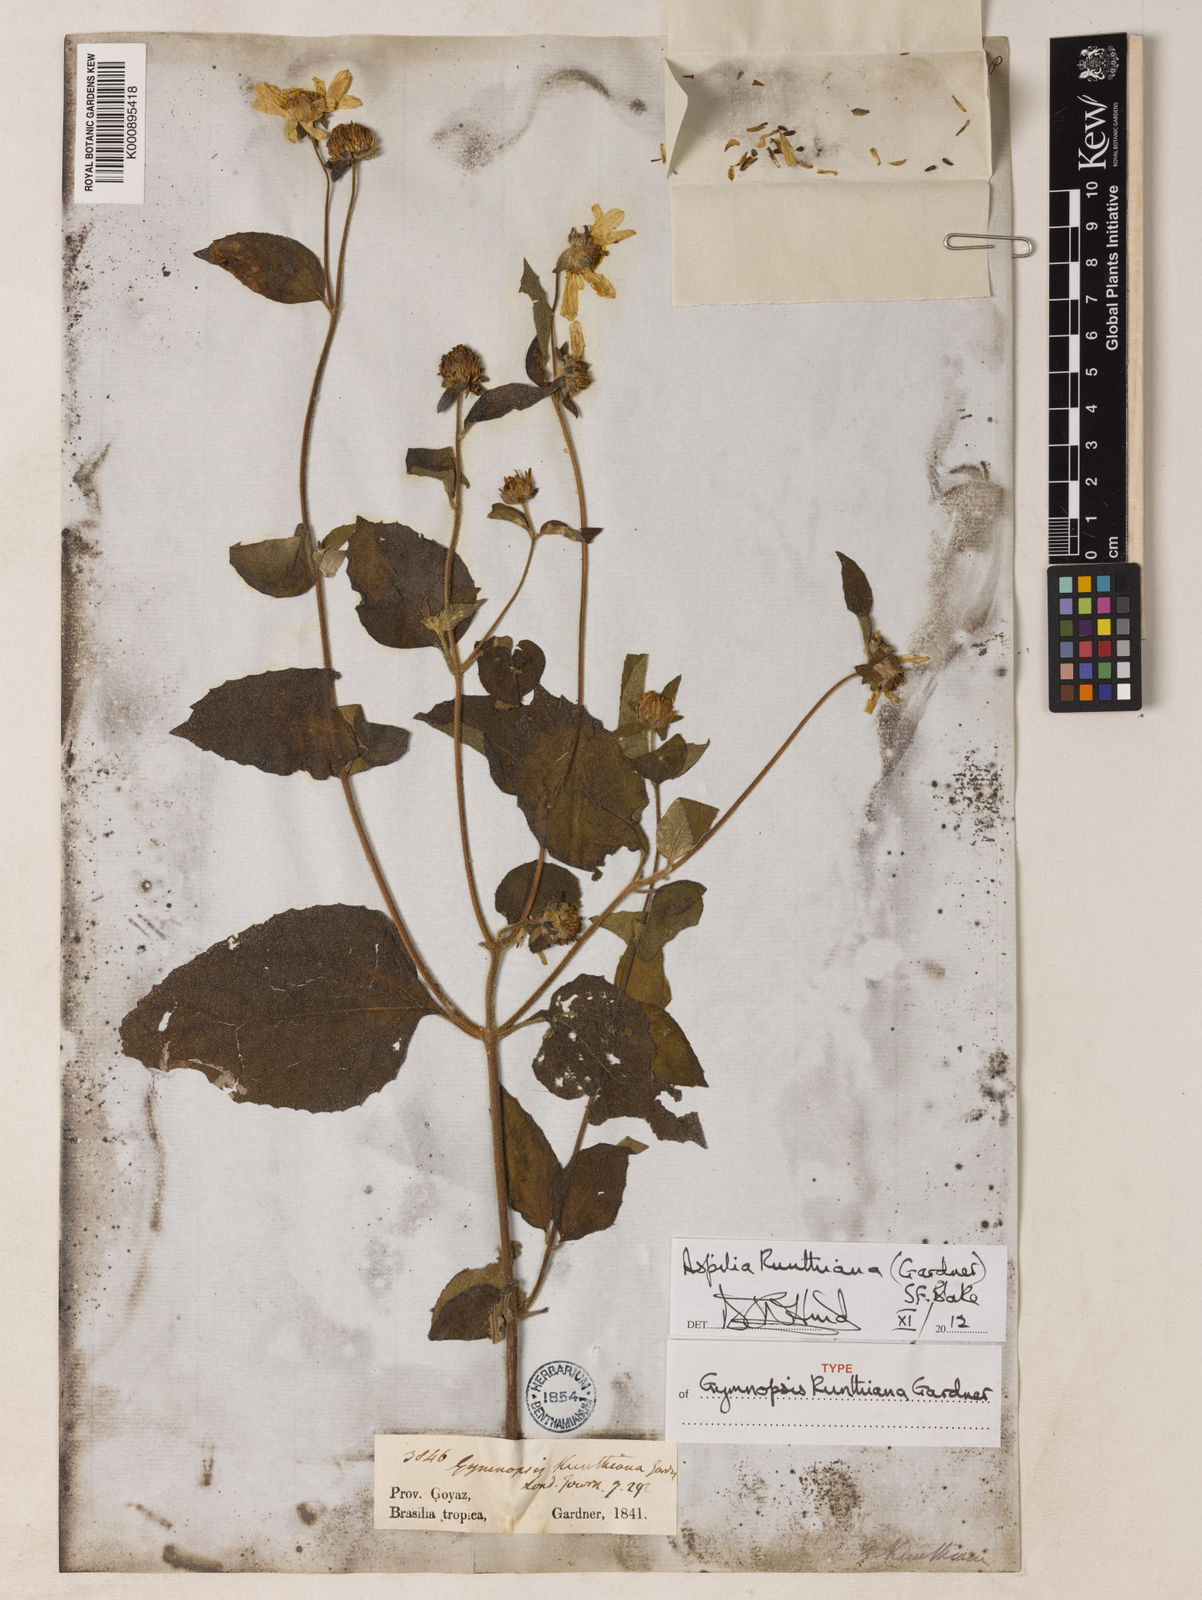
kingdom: Plantae
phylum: Tracheophyta
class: Magnoliopsida
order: Asterales
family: Asteraceae
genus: Aspilia
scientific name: Aspilia kunthiana
